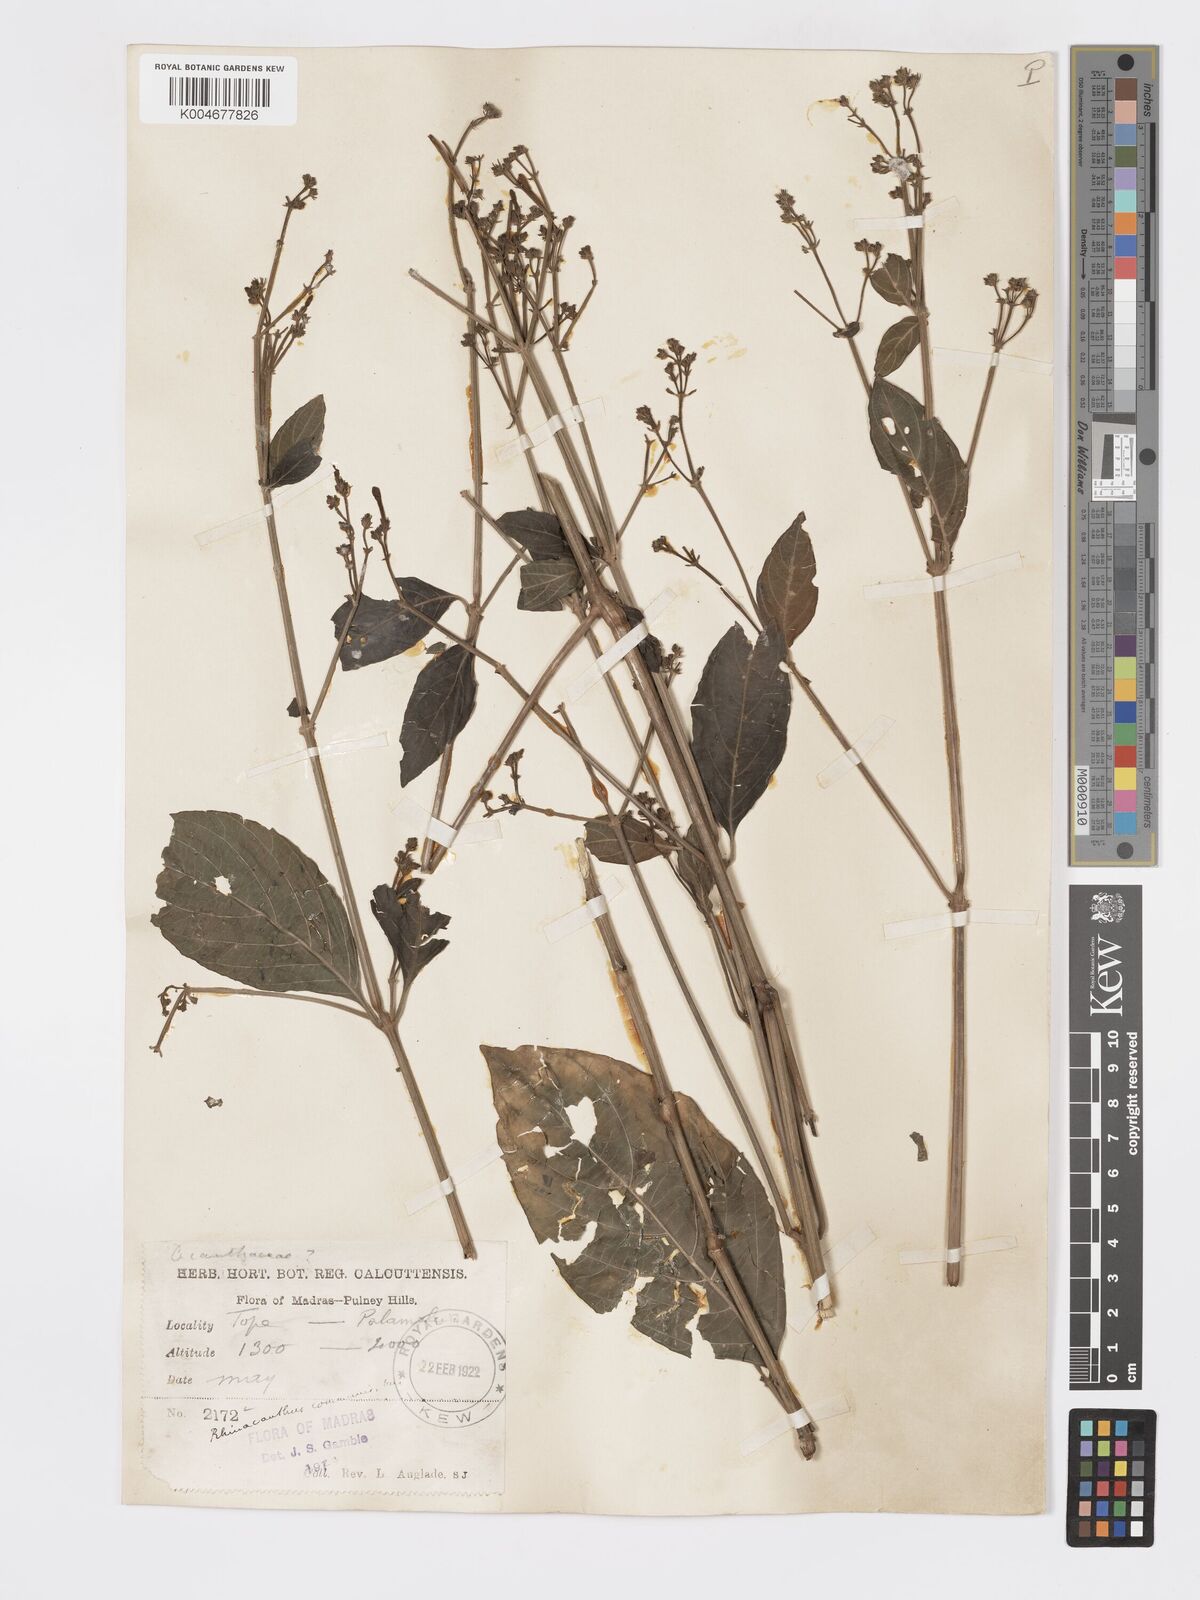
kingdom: Plantae
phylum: Tracheophyta
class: Magnoliopsida
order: Lamiales
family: Acanthaceae
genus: Rhinacanthus
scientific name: Rhinacanthus nasutus
